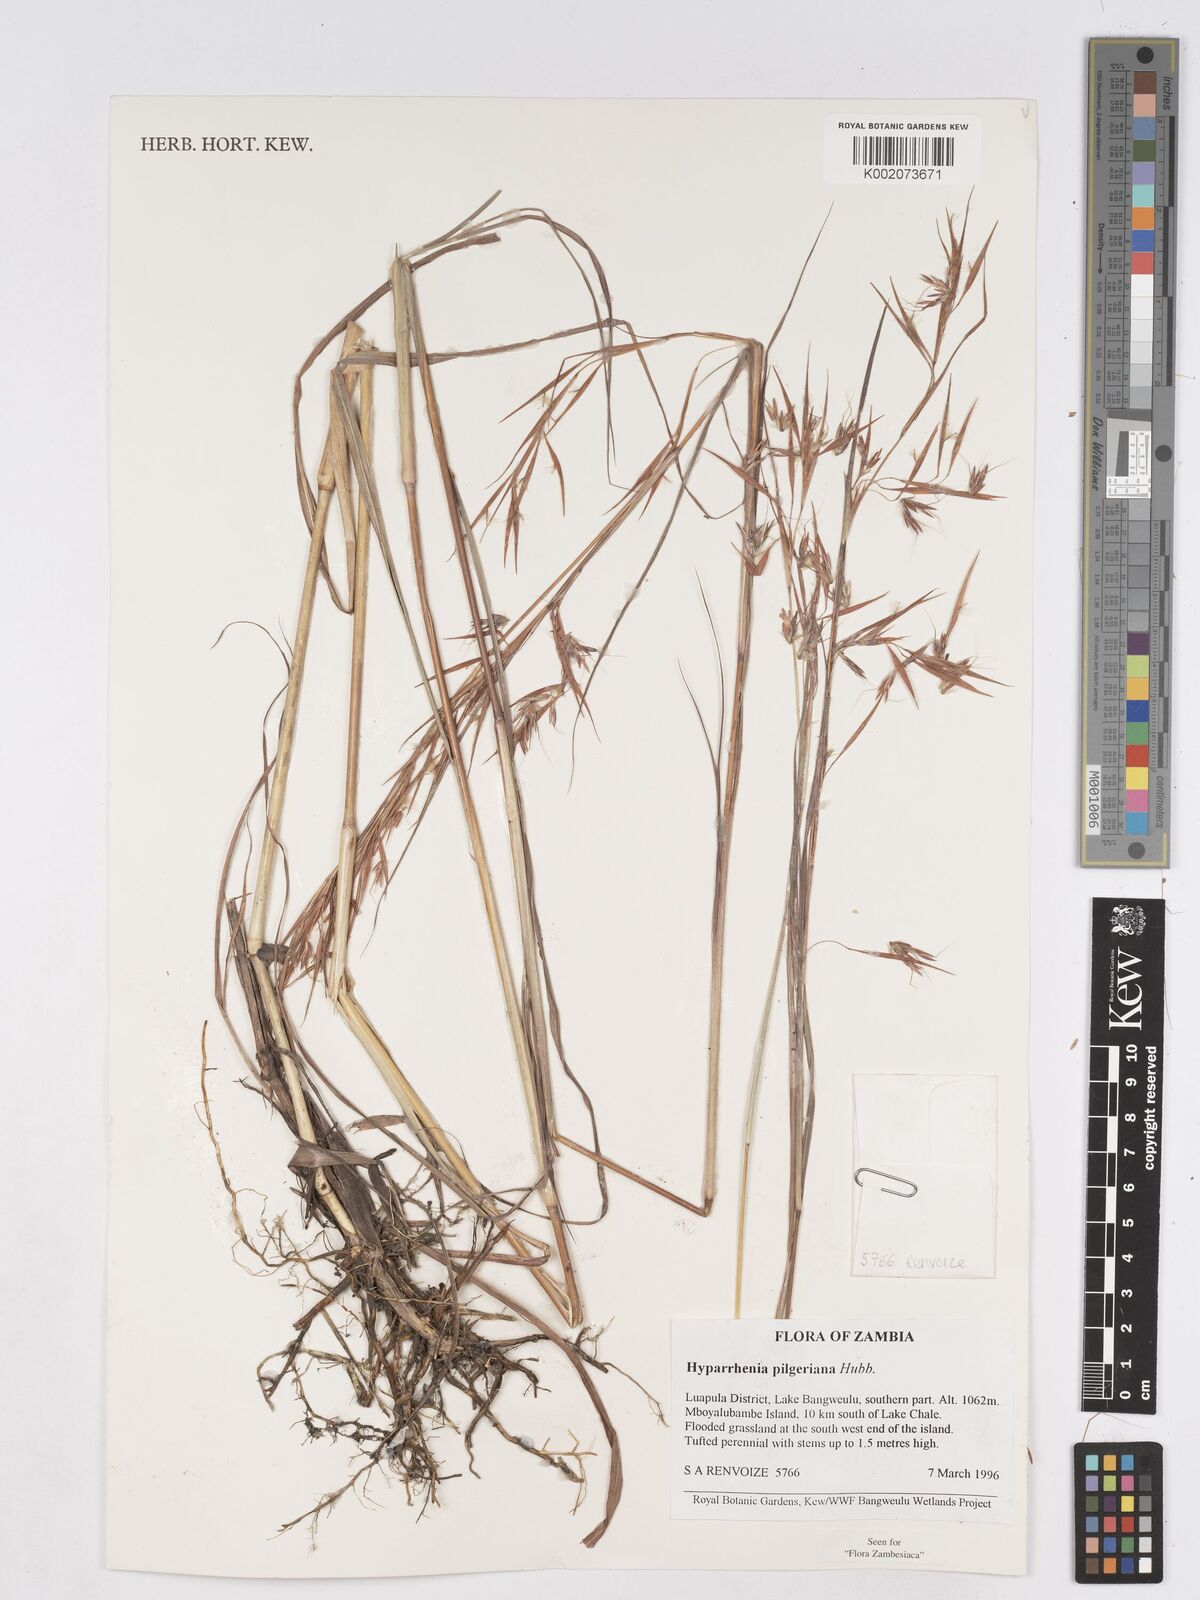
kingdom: Plantae
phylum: Tracheophyta
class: Liliopsida
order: Poales
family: Poaceae
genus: Hyparrhenia
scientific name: Hyparrhenia pilgeriana
